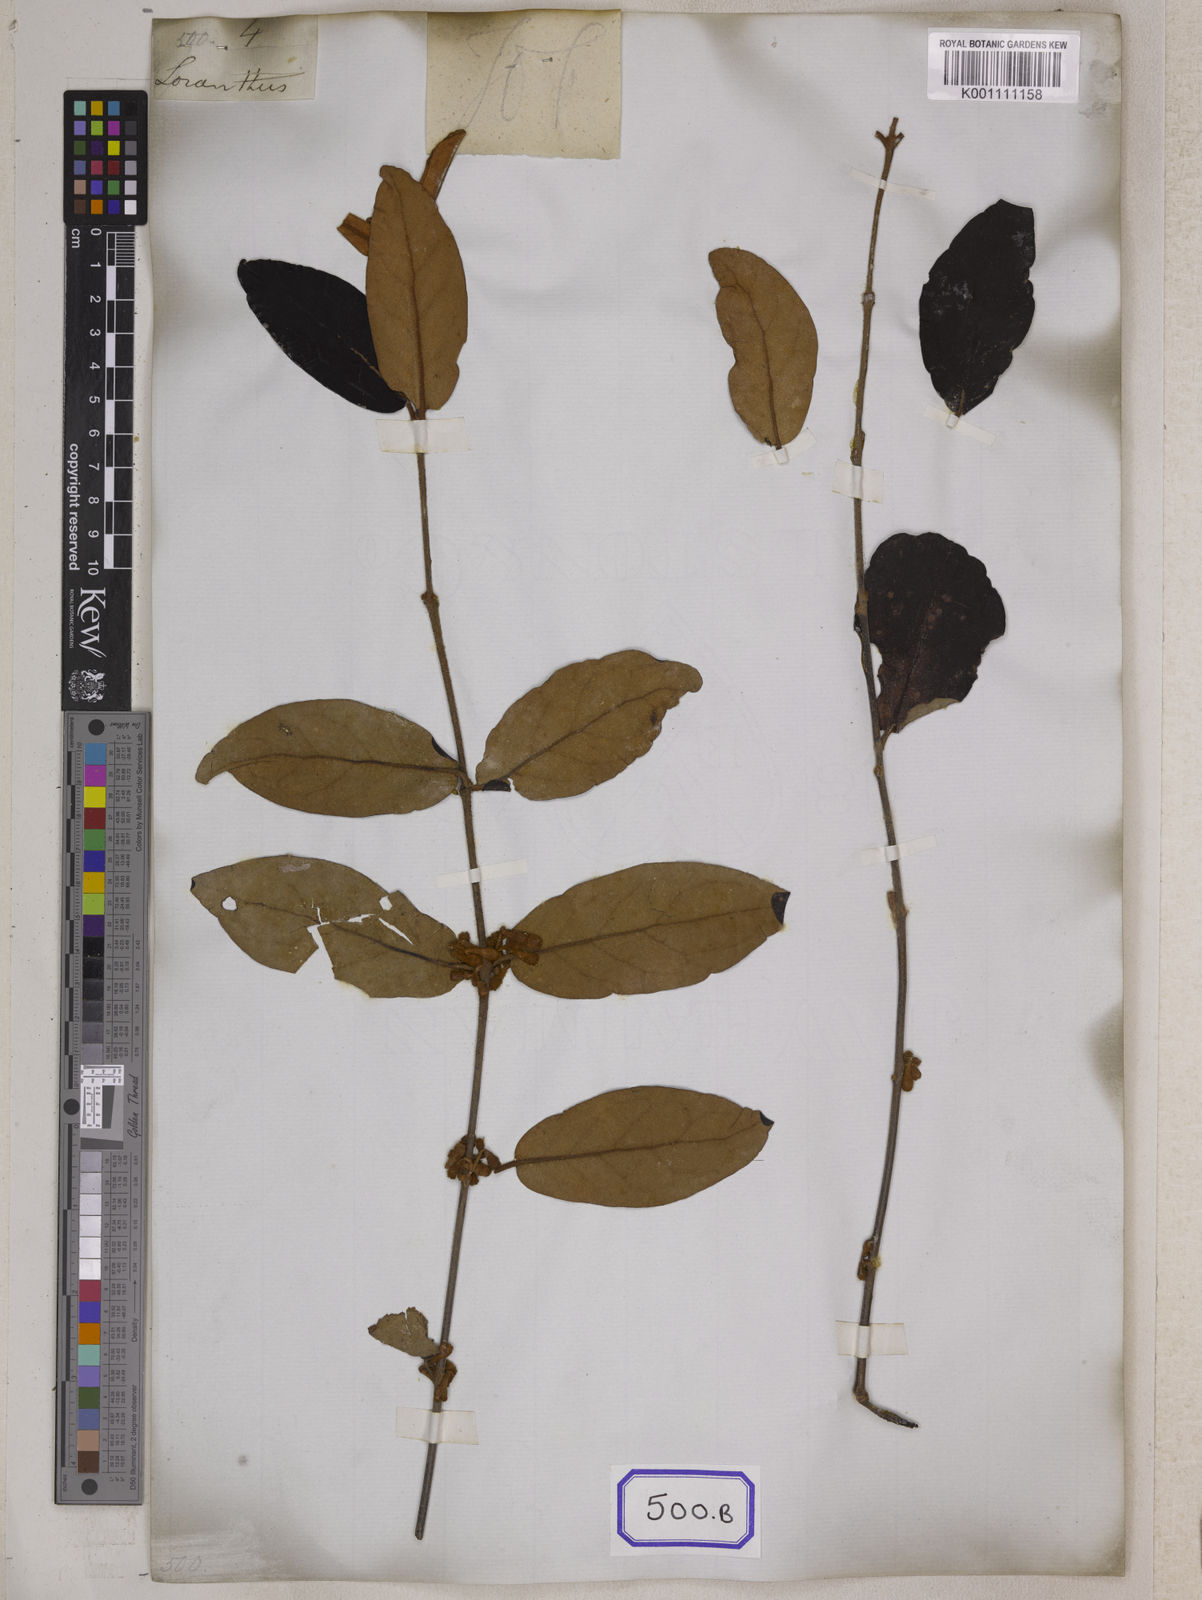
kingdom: Plantae
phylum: Tracheophyta
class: Magnoliopsida
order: Santalales
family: Loranthaceae
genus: Loranthus
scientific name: Loranthus
